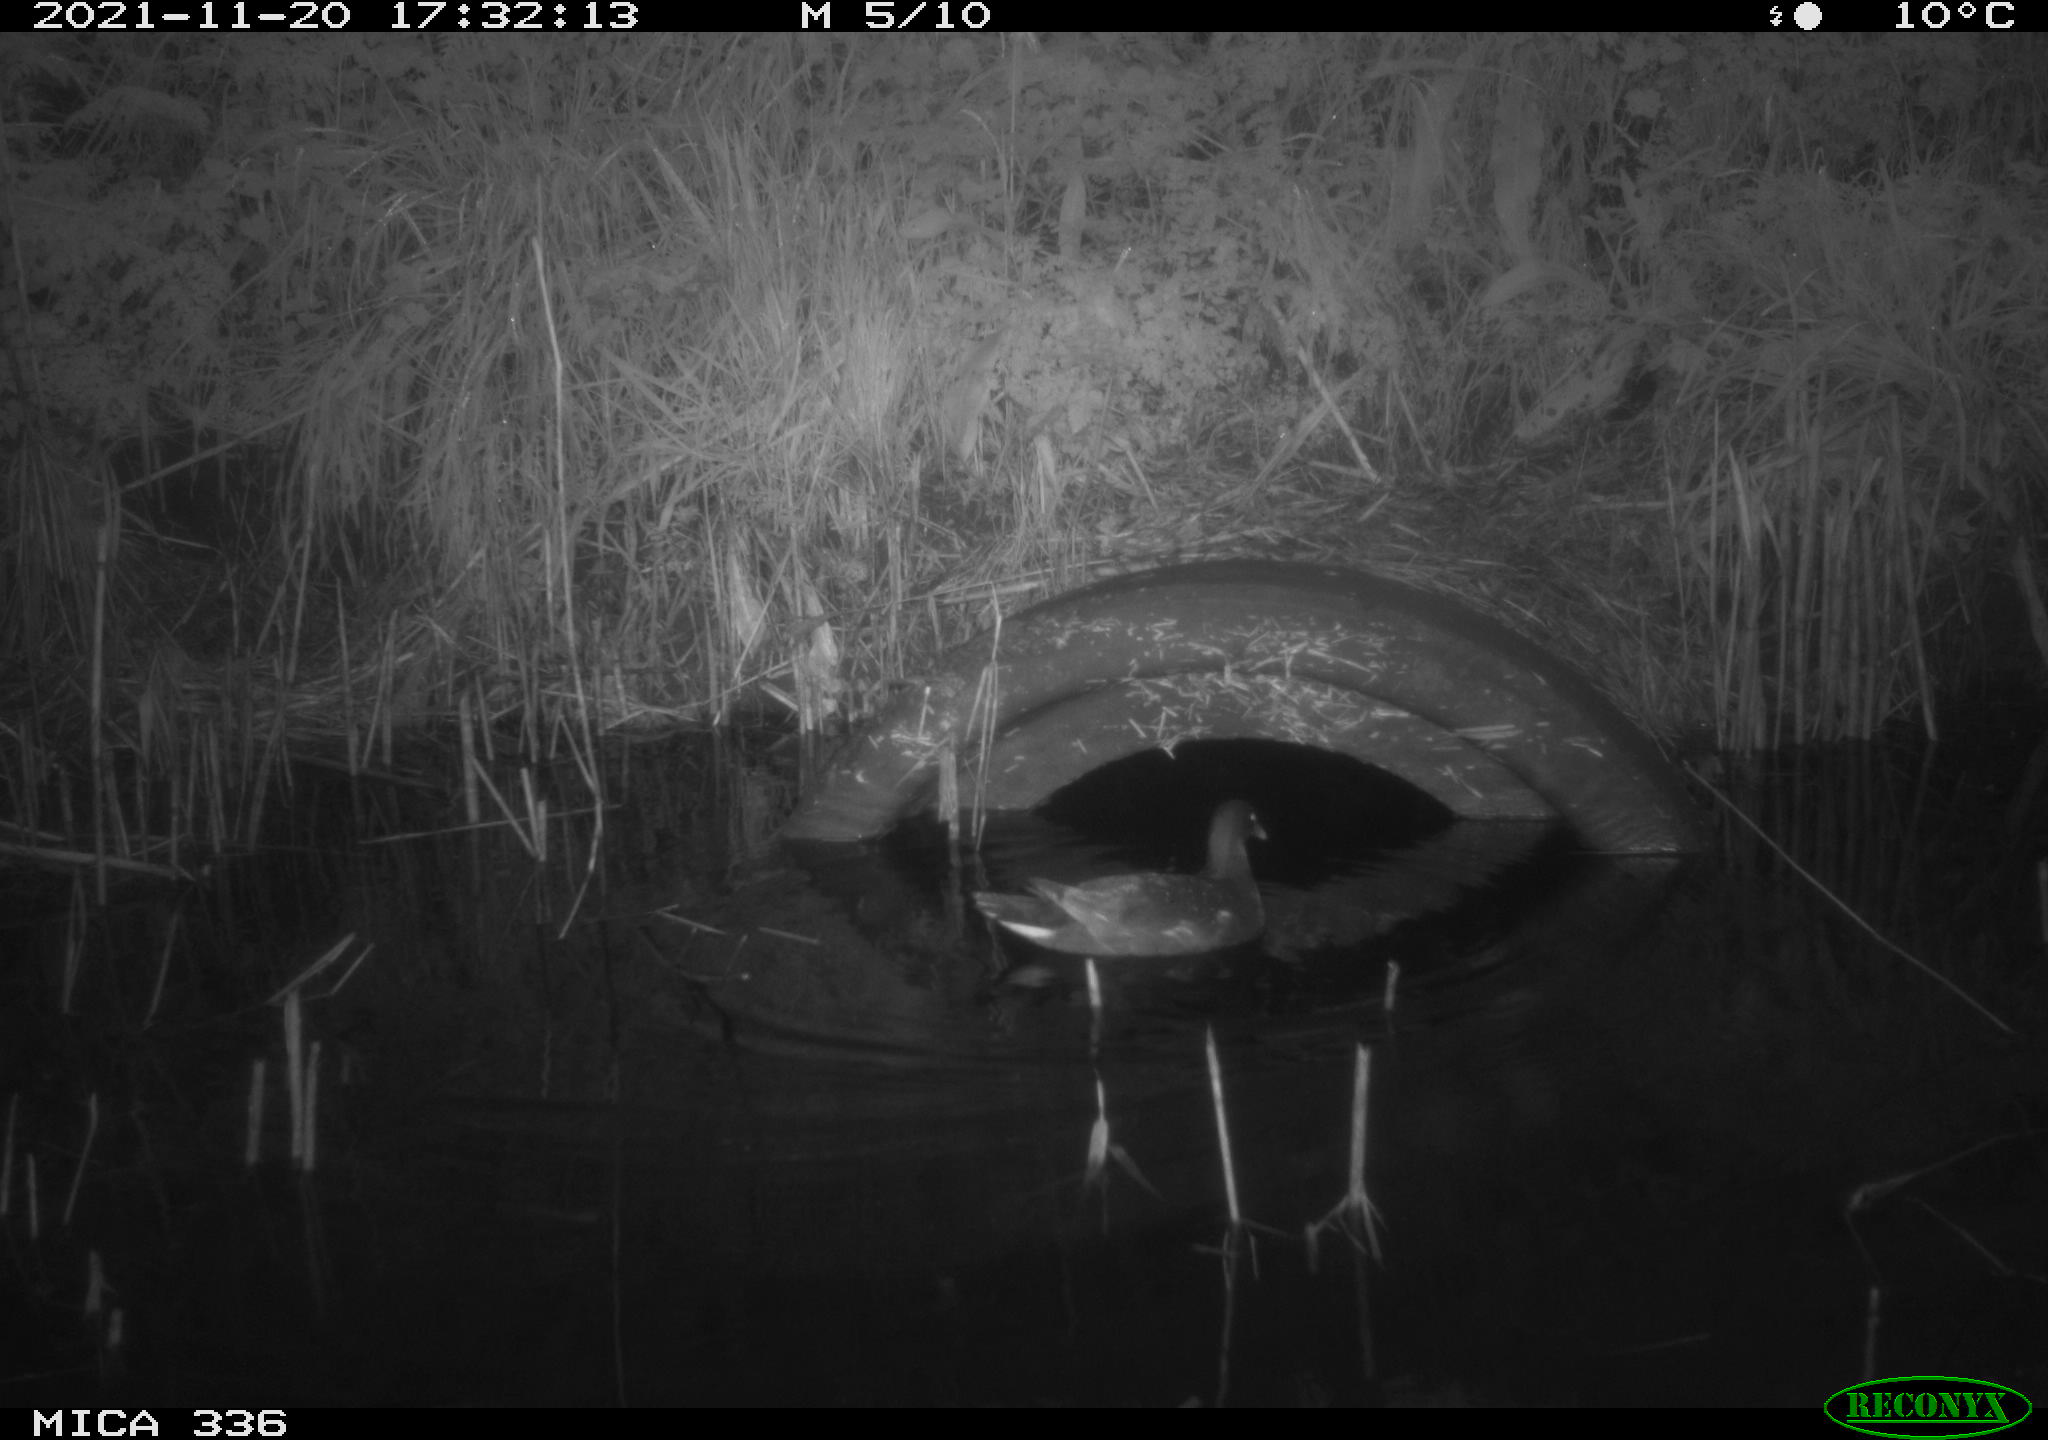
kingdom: Animalia
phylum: Chordata
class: Aves
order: Gruiformes
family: Rallidae
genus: Gallinula
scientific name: Gallinula chloropus
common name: Common moorhen
